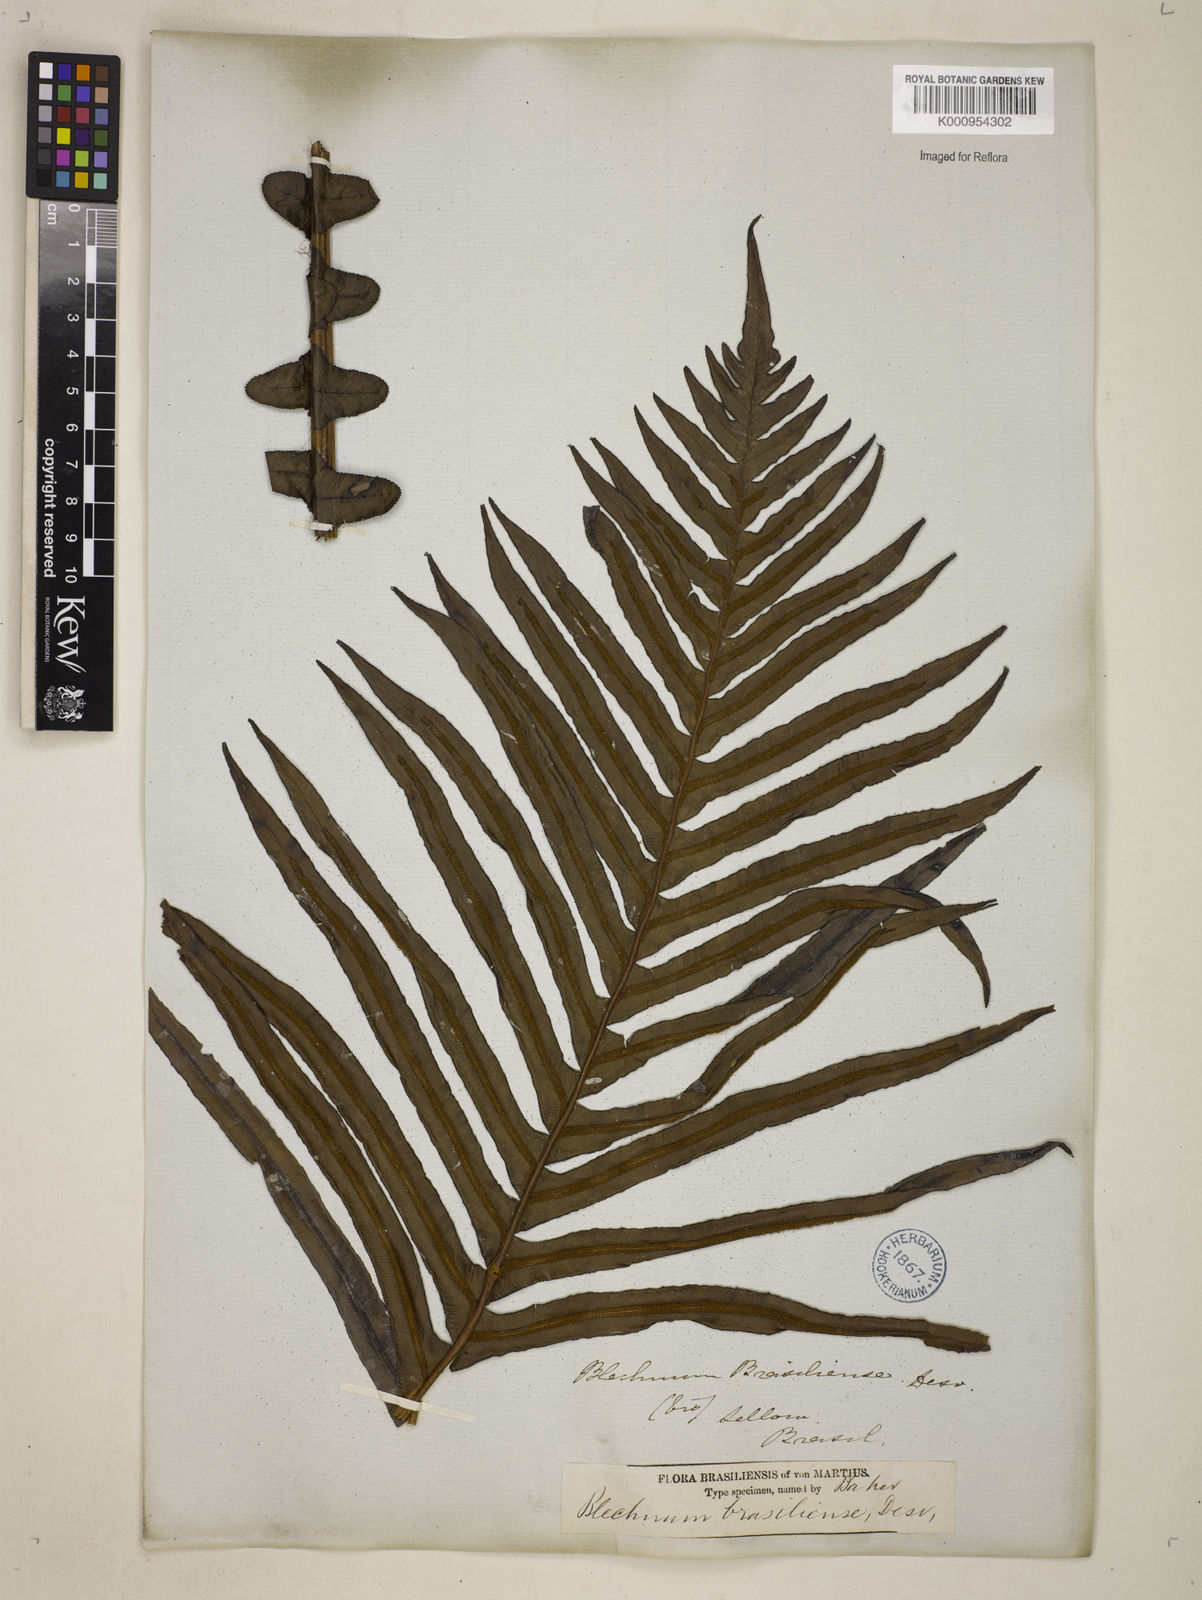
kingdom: Plantae
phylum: Tracheophyta
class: Polypodiopsida
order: Polypodiales
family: Blechnaceae
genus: Neoblechnum
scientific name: Neoblechnum brasiliense
